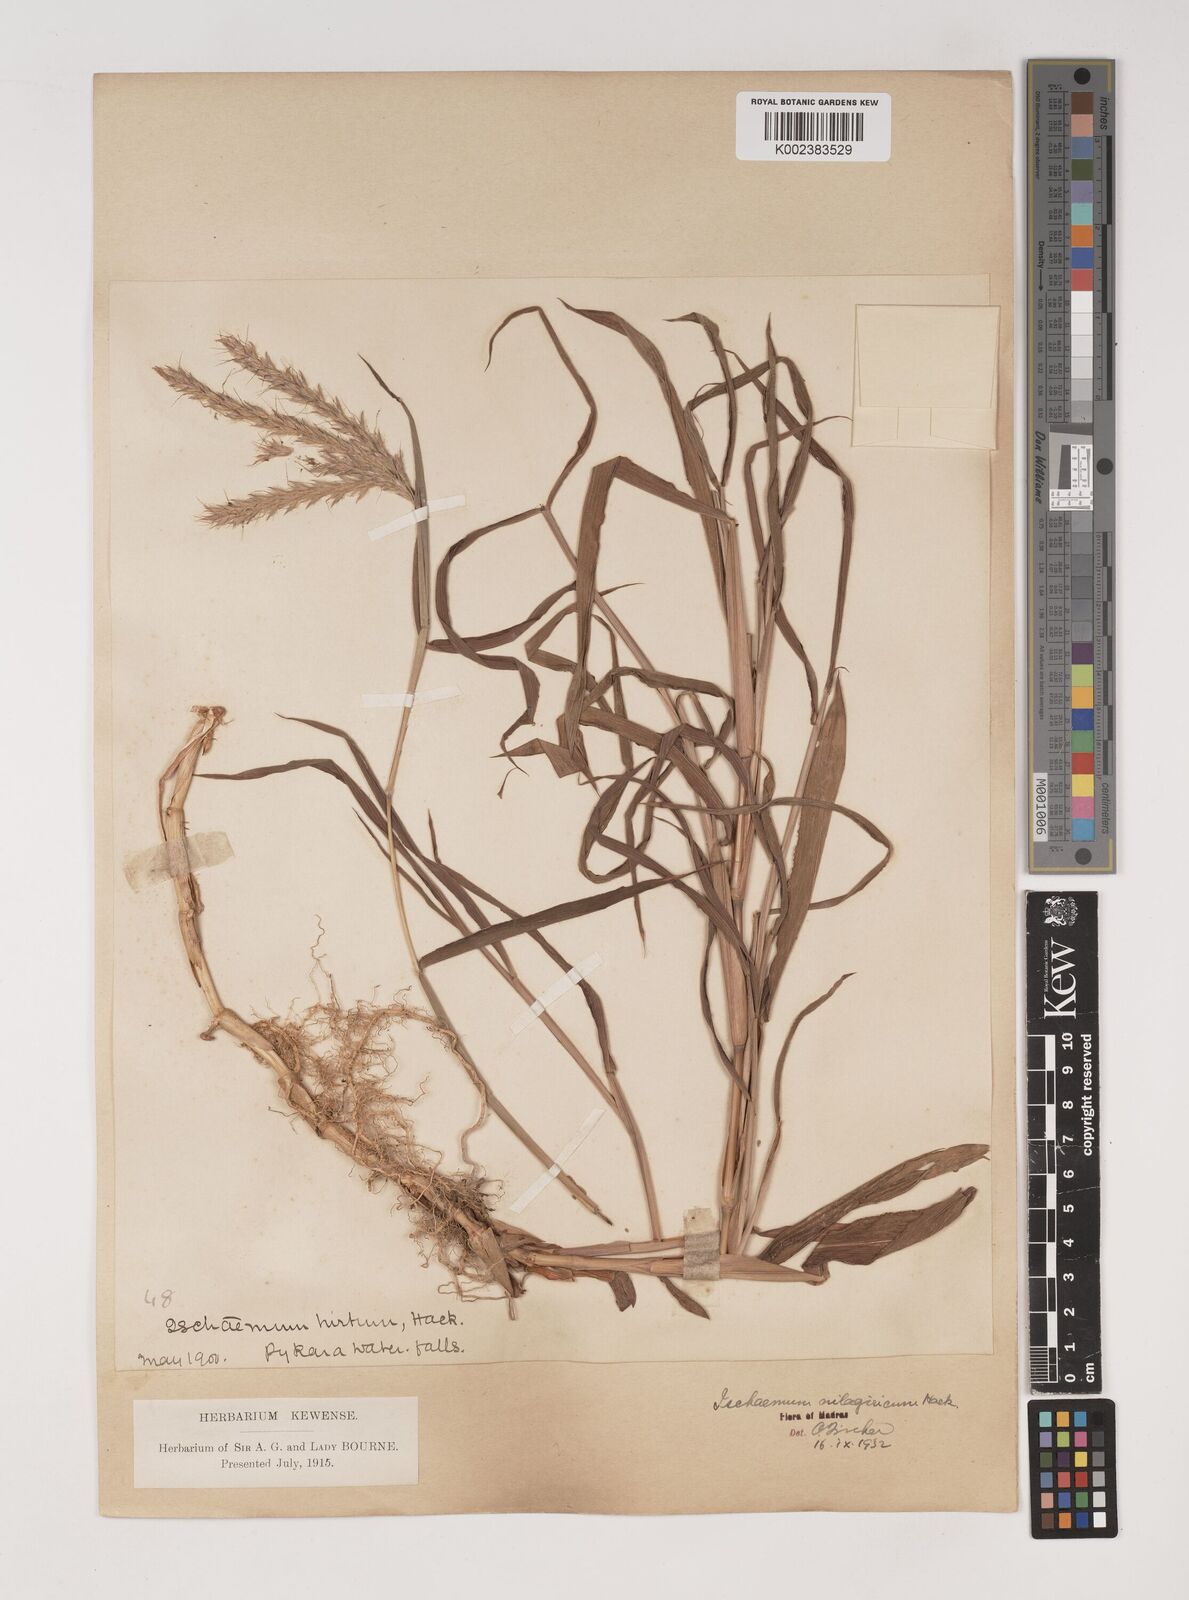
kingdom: Plantae
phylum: Tracheophyta
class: Liliopsida
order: Poales
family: Poaceae
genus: Ischaemum
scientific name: Ischaemum
